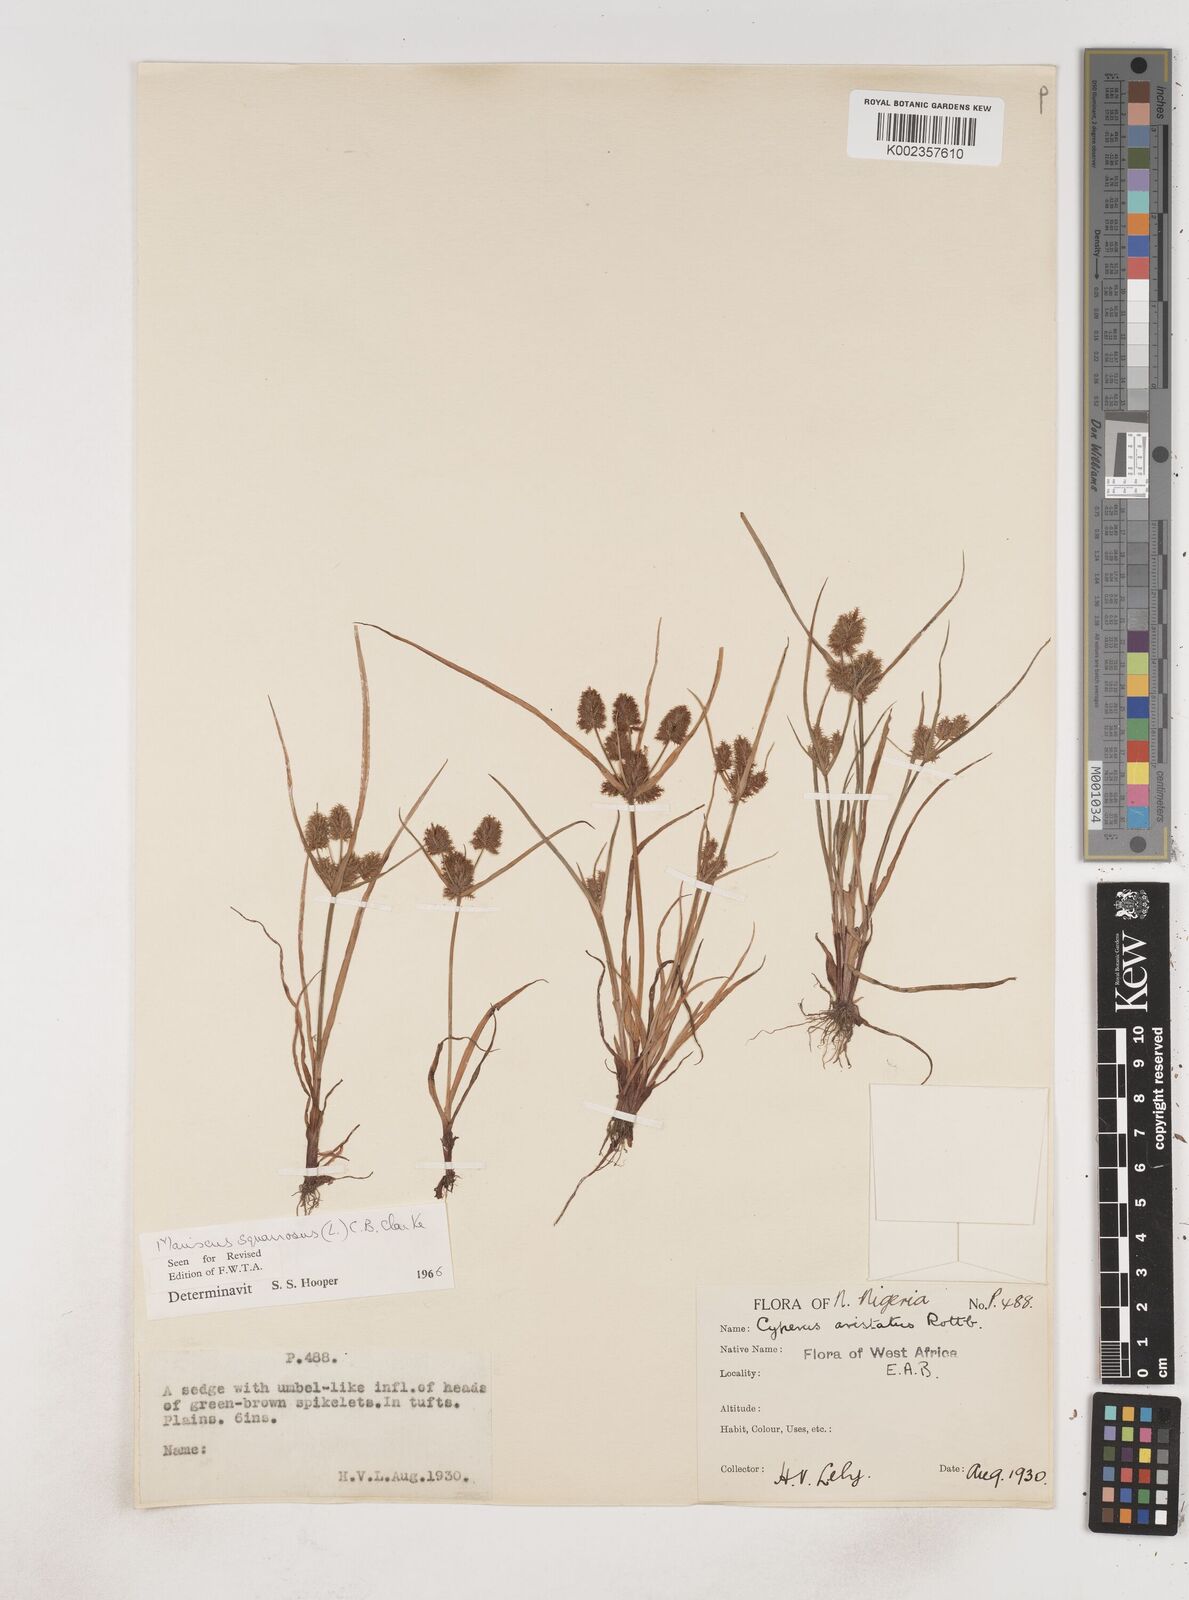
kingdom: Plantae
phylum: Tracheophyta
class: Liliopsida
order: Poales
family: Cyperaceae
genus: Cyperus
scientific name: Cyperus squarrosus
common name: Awned cyperus
